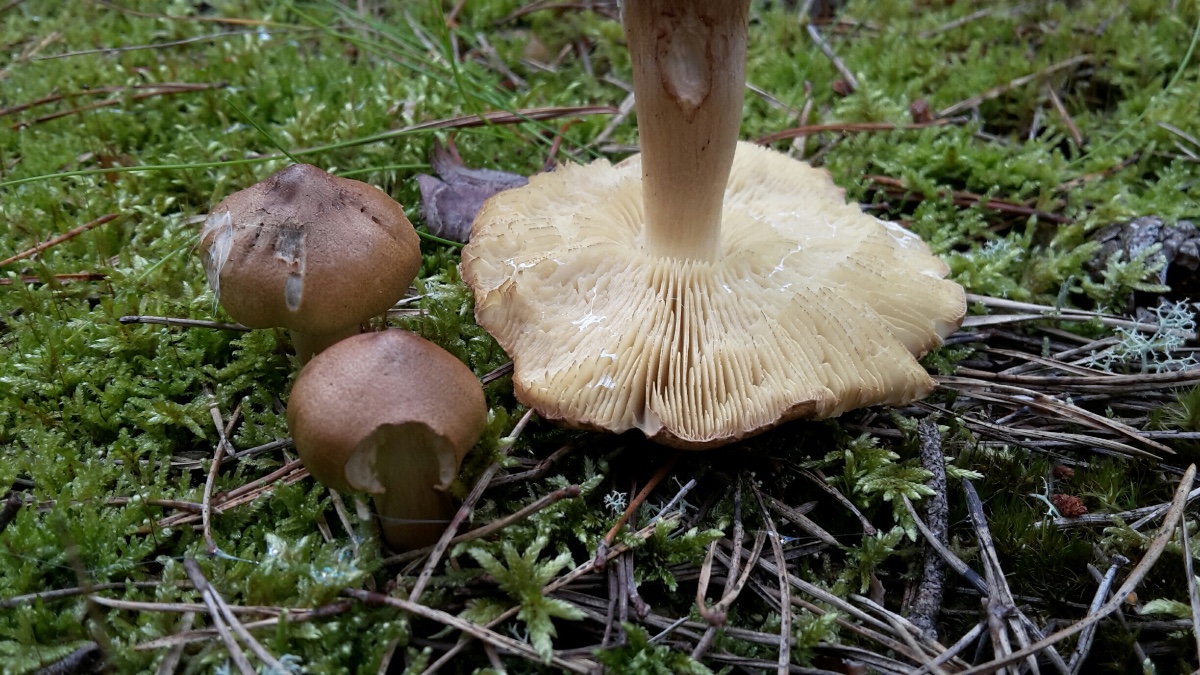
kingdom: Fungi
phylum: Basidiomycota
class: Agaricomycetes
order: Agaricales
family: Tricholomataceae
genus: Tricholoma
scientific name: Tricholoma aestuans
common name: kegle-ridderhat
